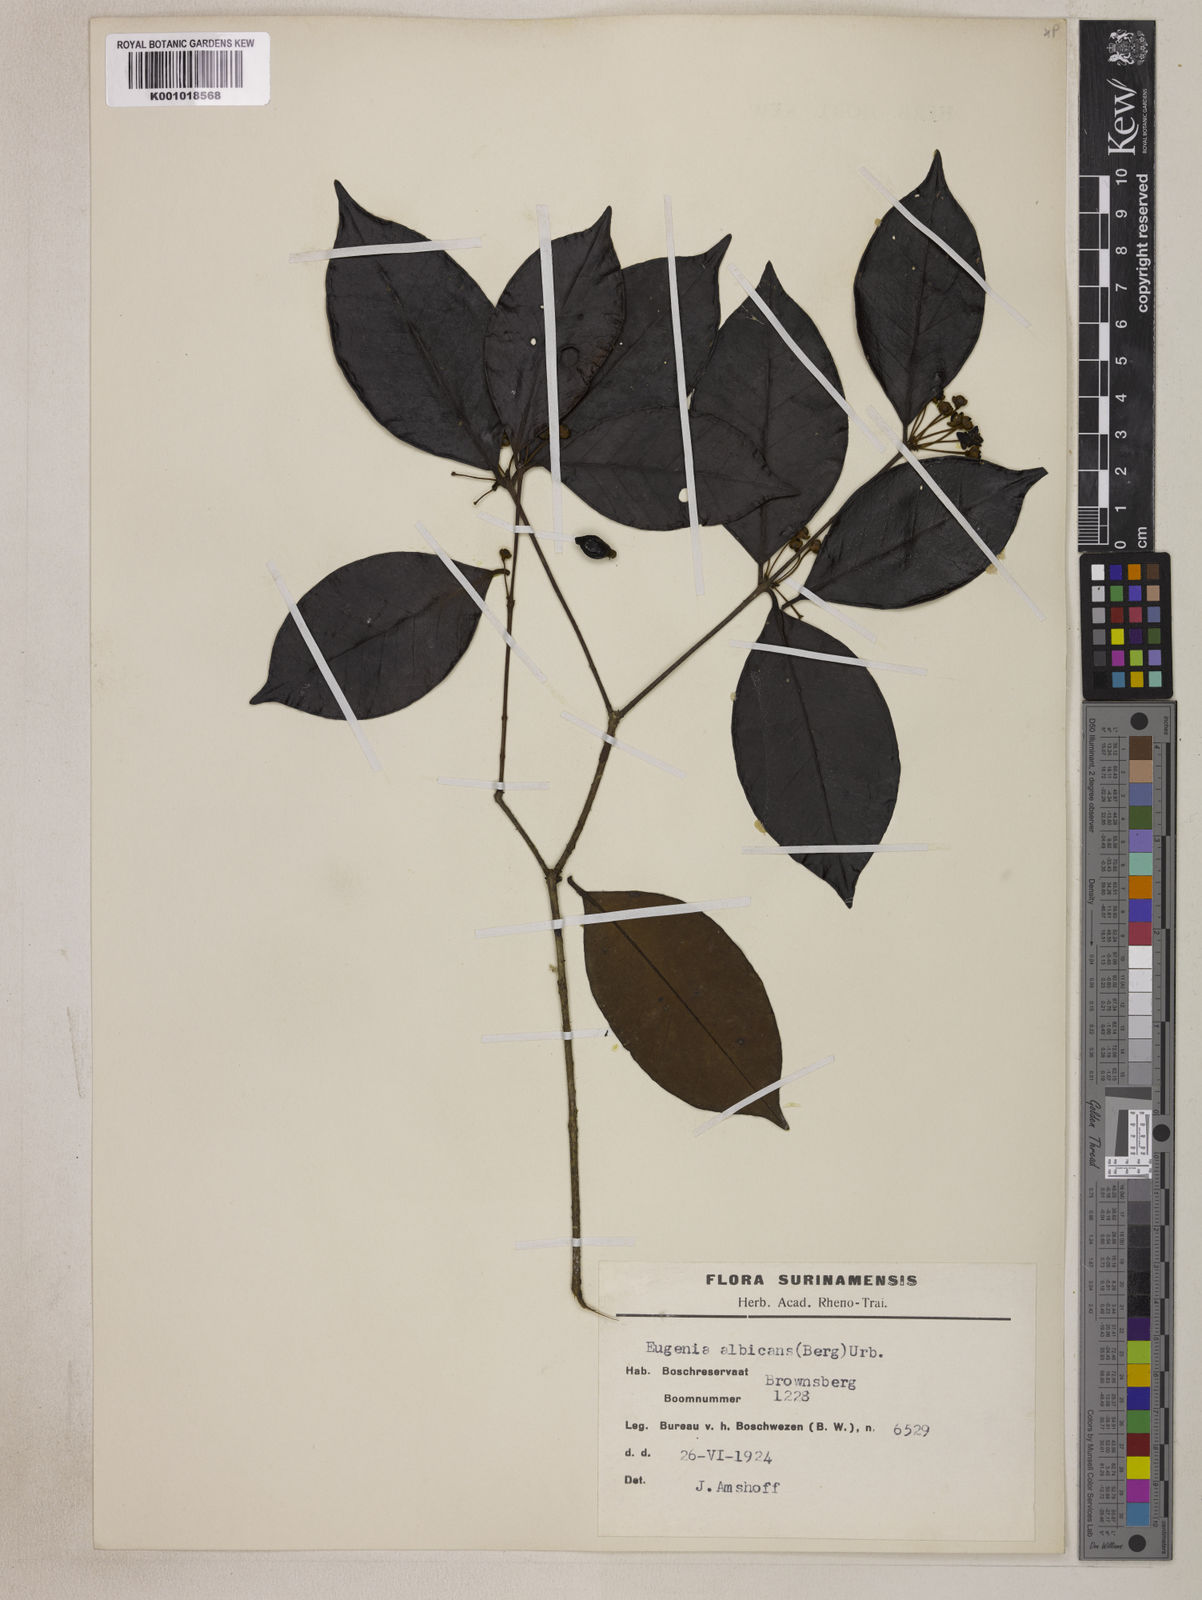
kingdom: Plantae
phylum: Tracheophyta
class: Magnoliopsida
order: Myrtales
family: Myrtaceae
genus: Eugenia
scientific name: Eugenia albicans
